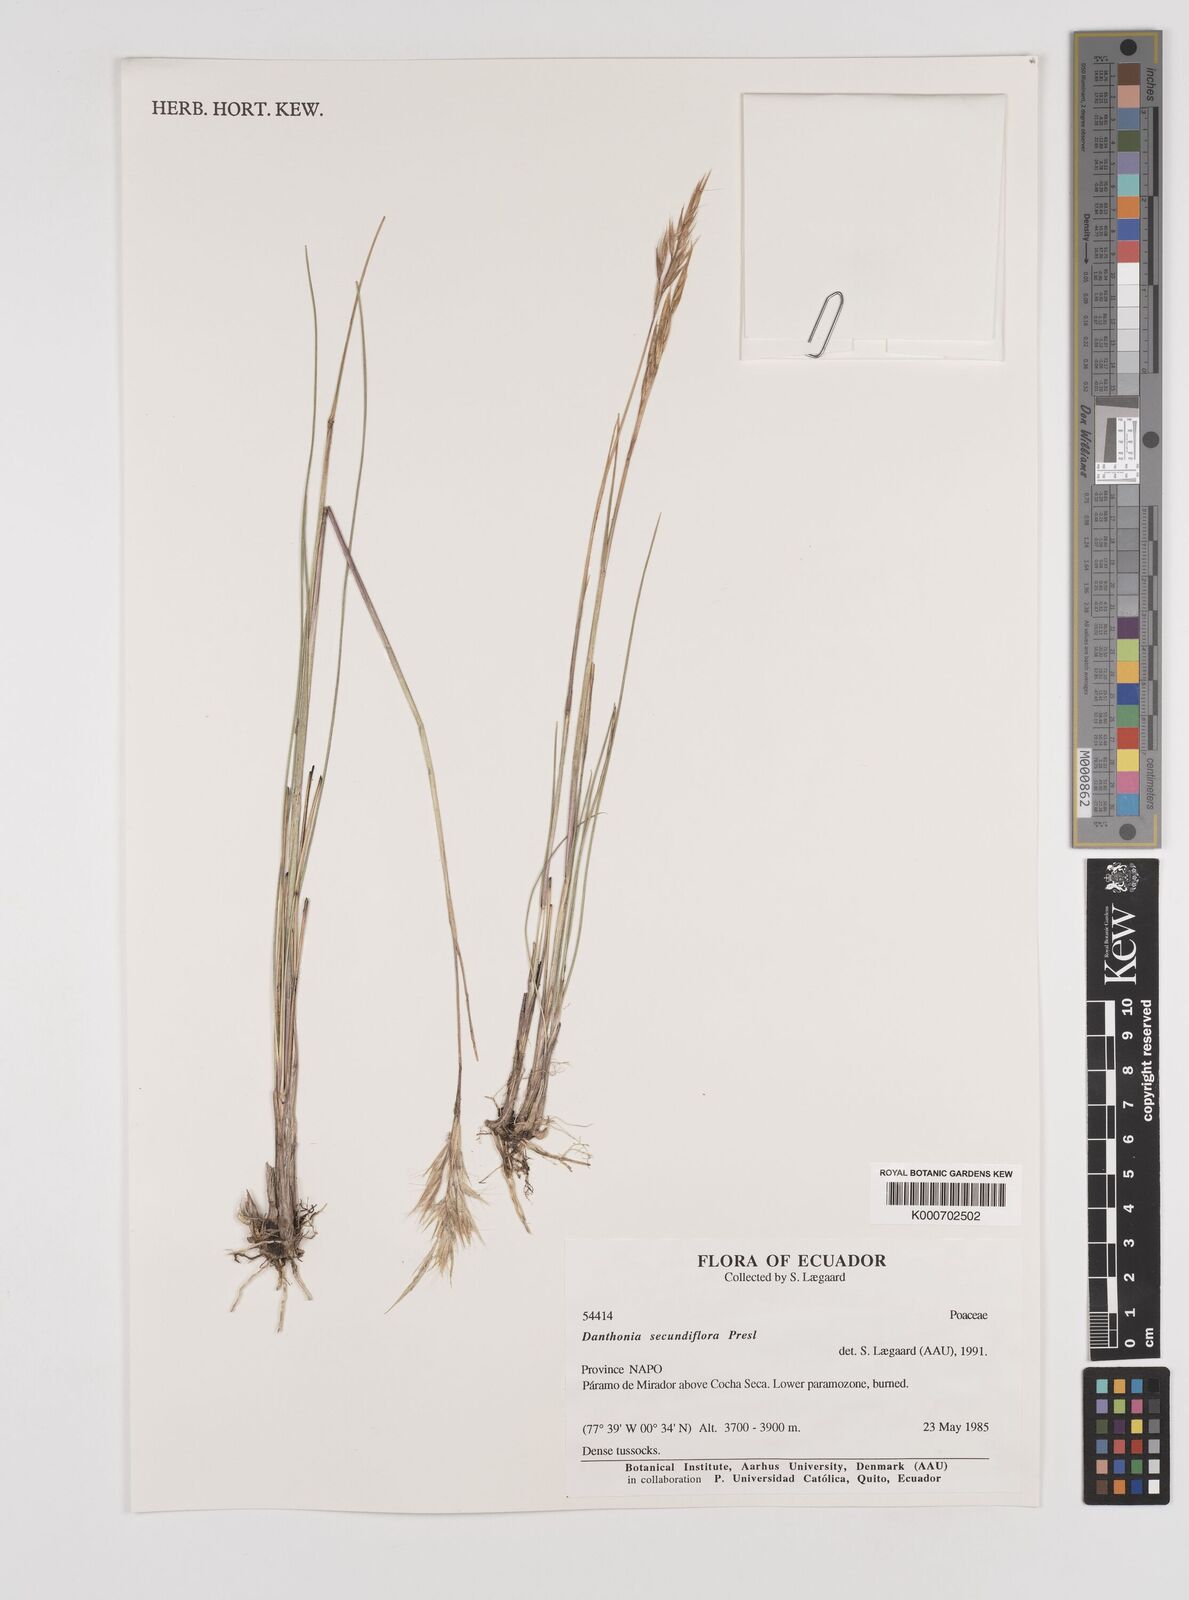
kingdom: Plantae
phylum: Tracheophyta
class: Liliopsida
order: Poales
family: Poaceae
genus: Danthonia
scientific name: Danthonia secundiflora
